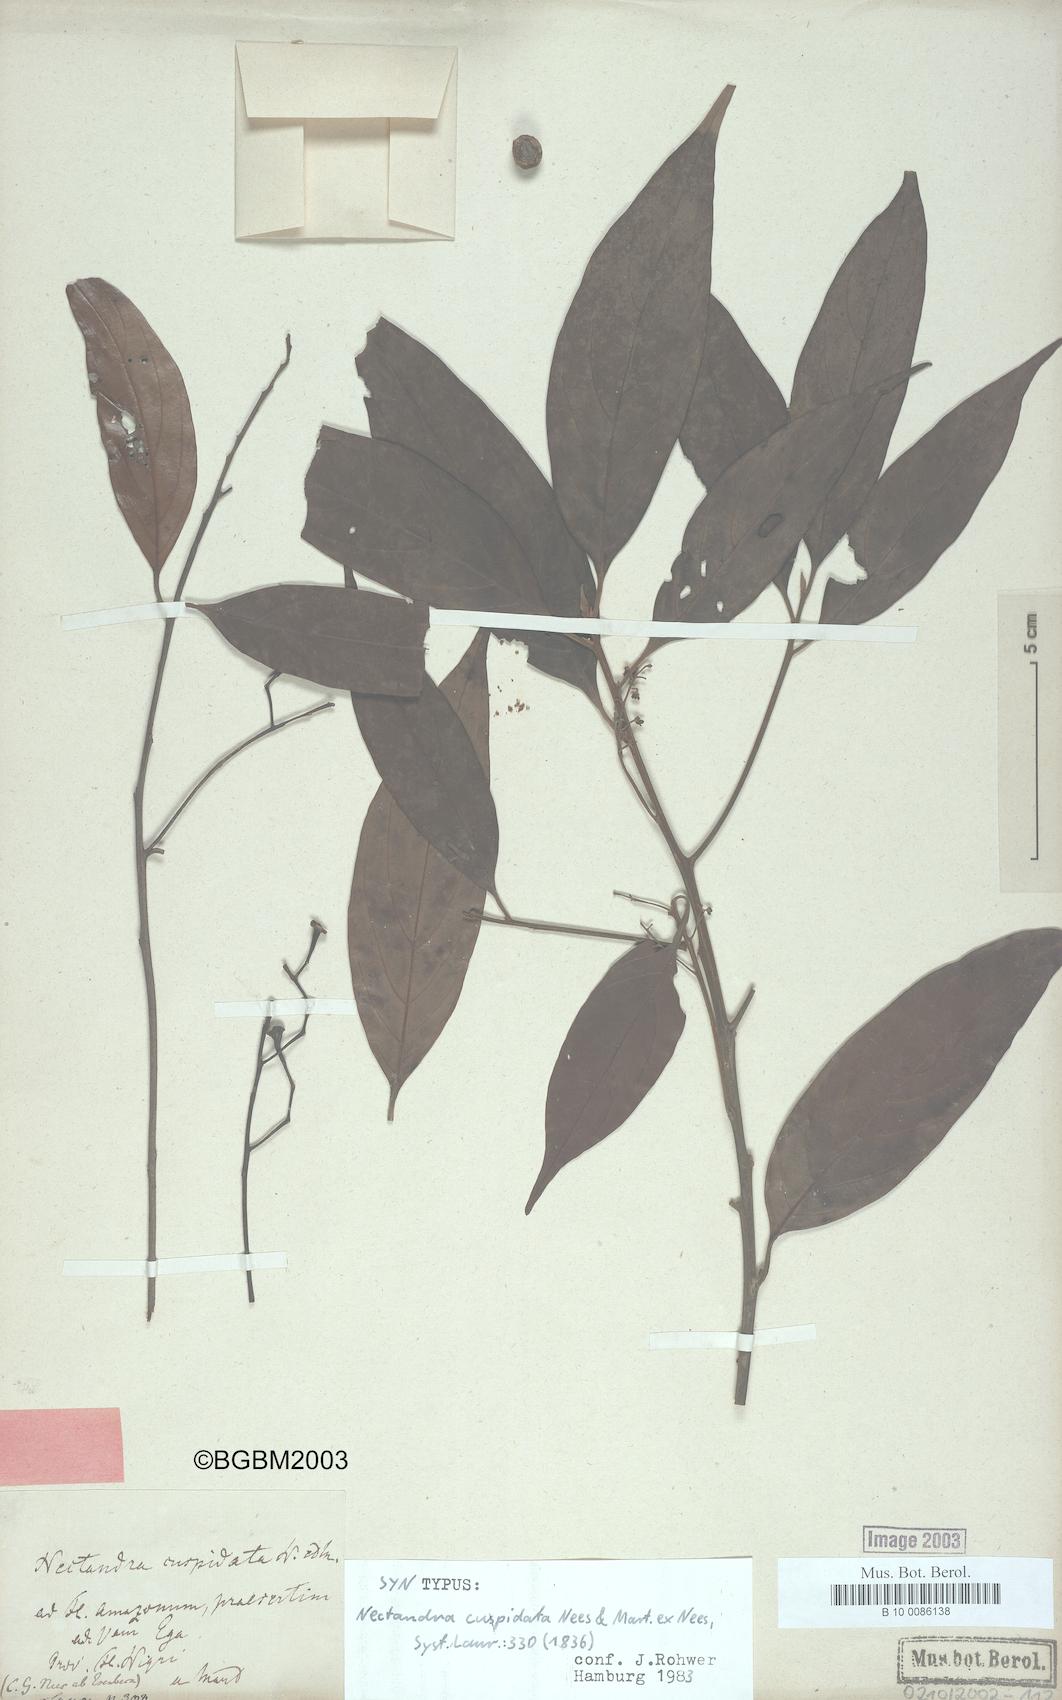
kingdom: Plantae
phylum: Tracheophyta
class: Magnoliopsida
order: Laurales
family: Lauraceae
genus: Nectandra
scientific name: Nectandra cuspidata
